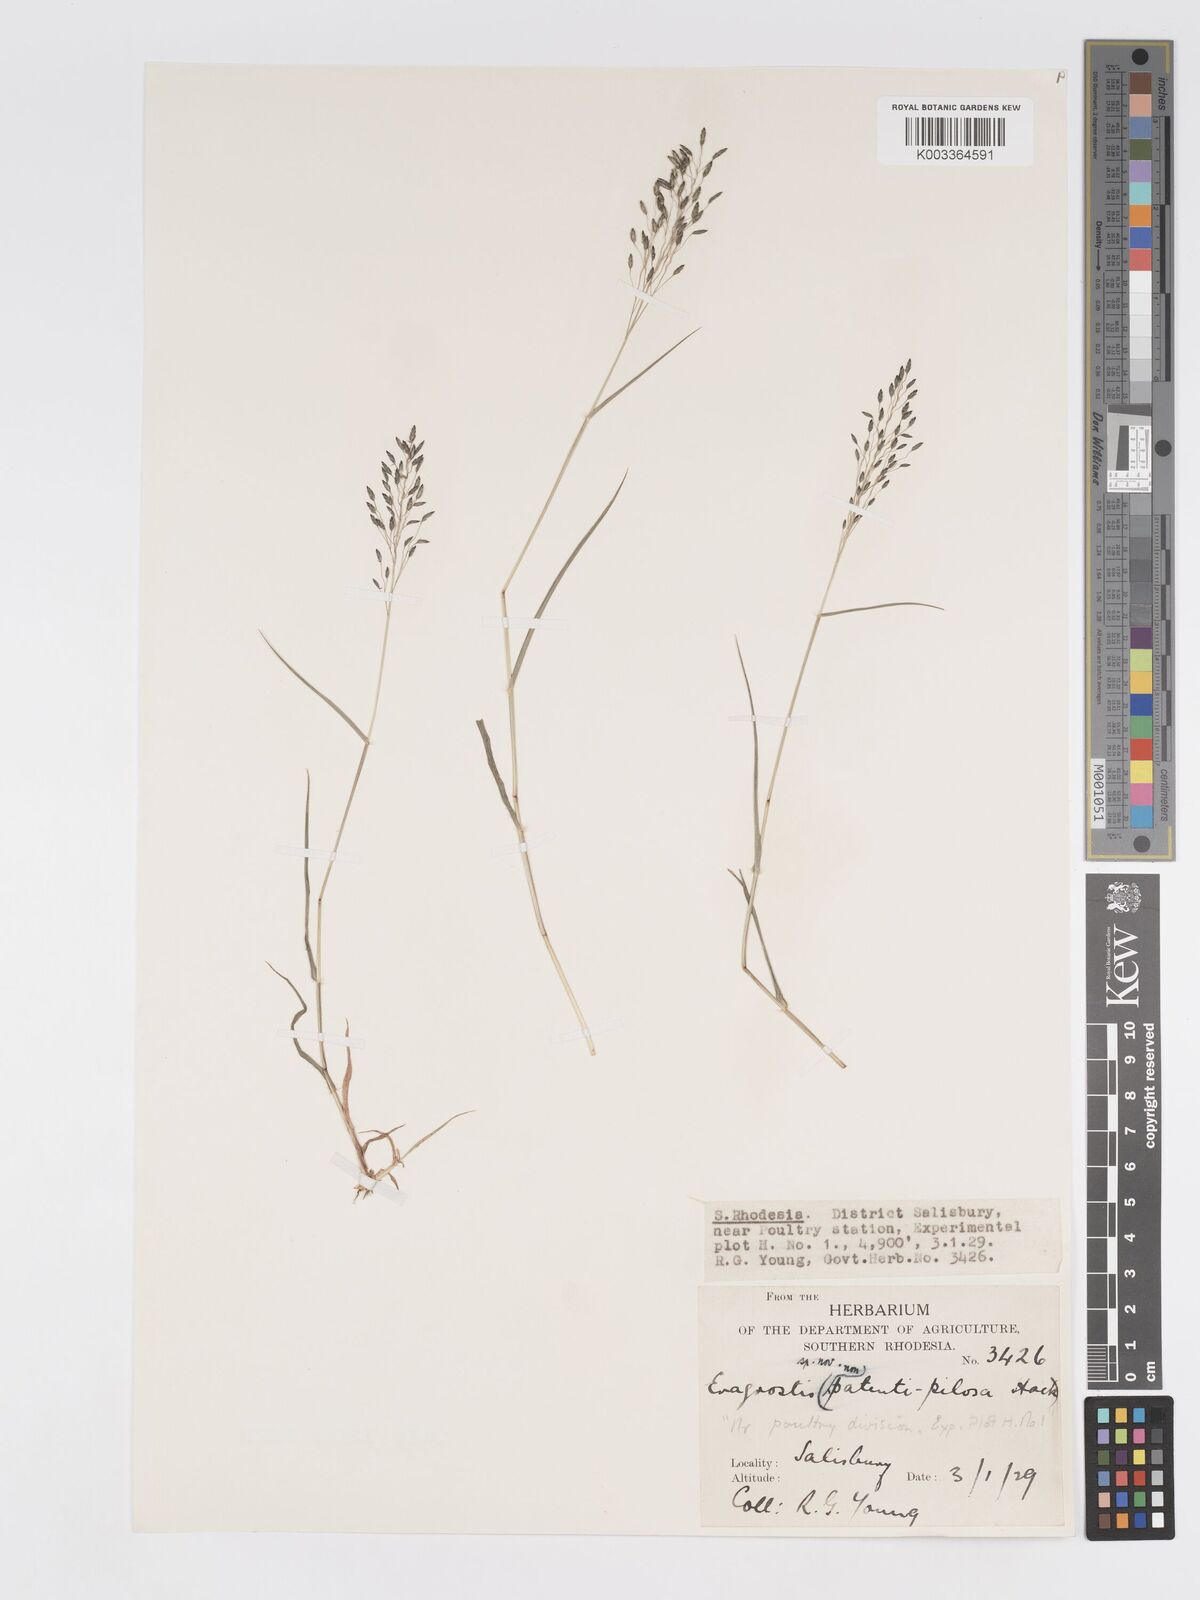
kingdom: Plantae
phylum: Tracheophyta
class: Liliopsida
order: Poales
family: Poaceae
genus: Eragrostis
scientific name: Eragrostis patentipilosa
